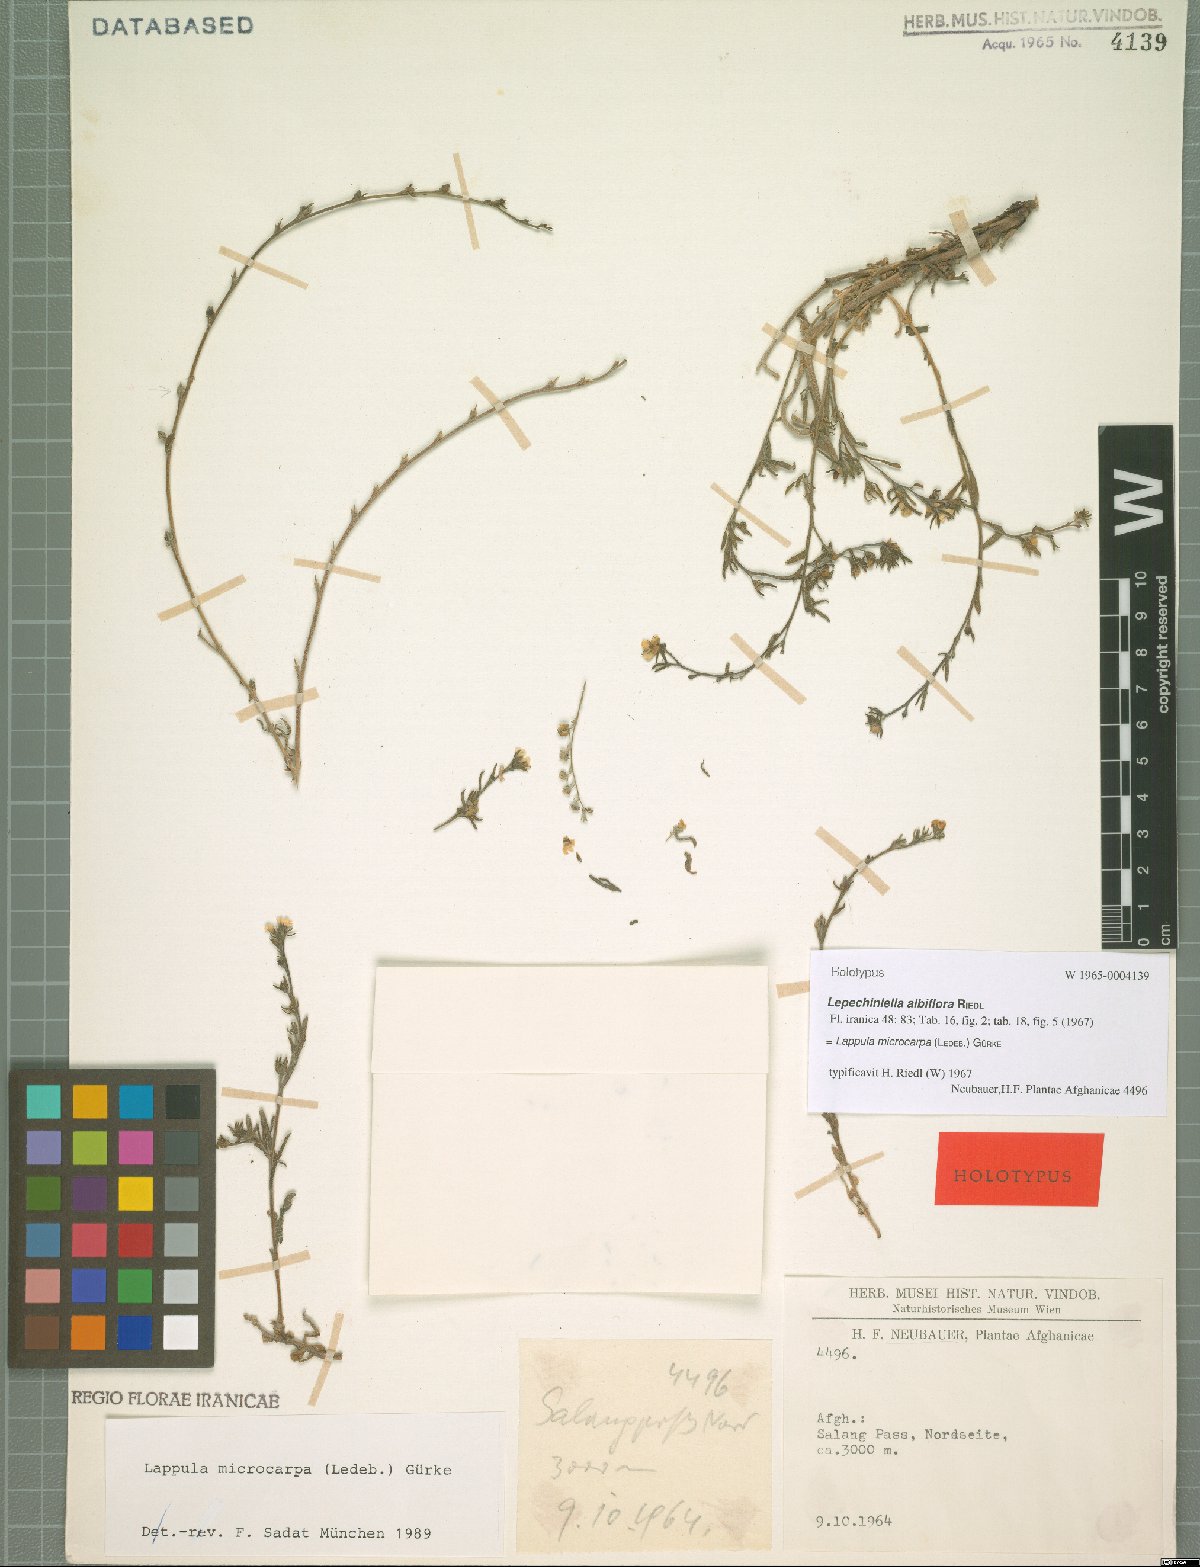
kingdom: Plantae
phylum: Tracheophyta
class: Magnoliopsida
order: Boraginales
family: Boraginaceae
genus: Lappula
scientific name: Lappula microcarpa
